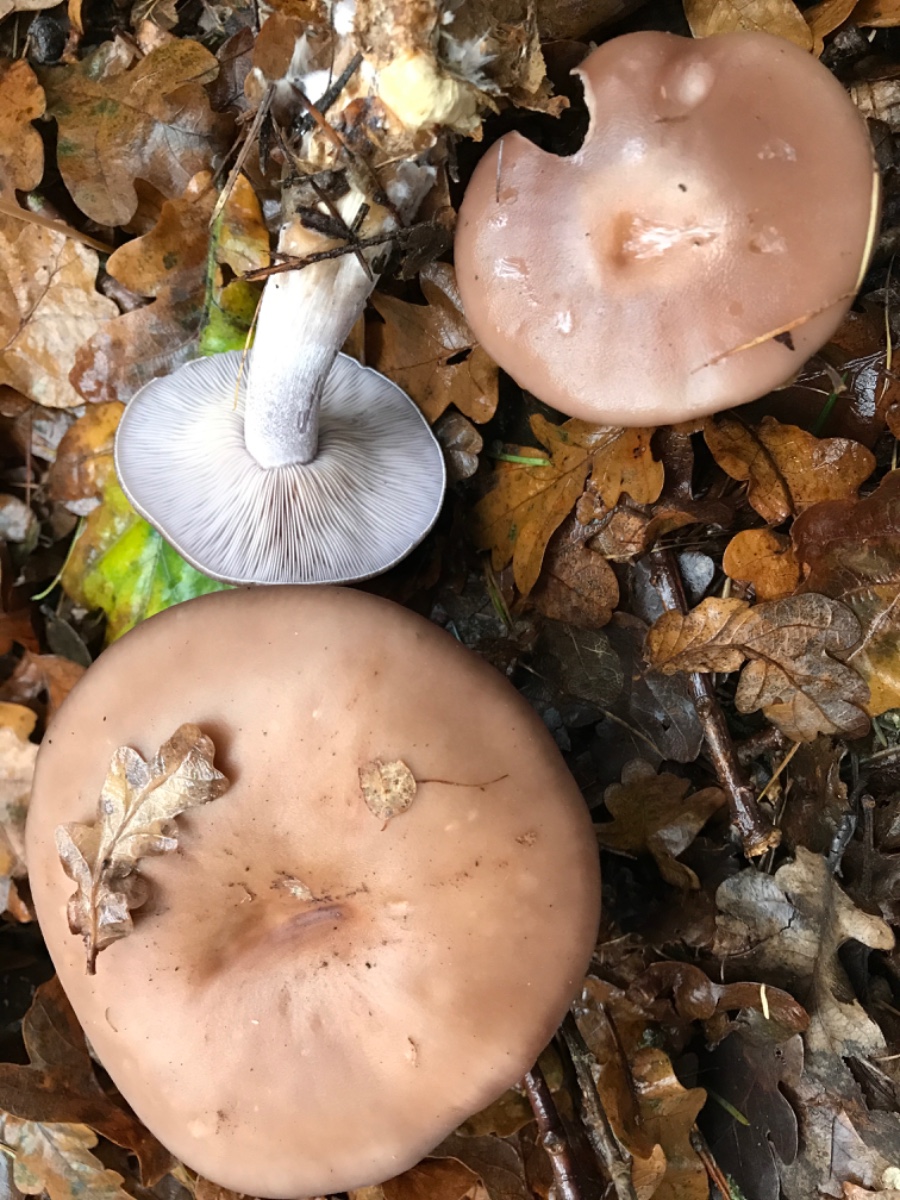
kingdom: Fungi
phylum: Basidiomycota
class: Agaricomycetes
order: Agaricales
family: Tricholomataceae
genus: Lepista
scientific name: Lepista nuda
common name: violet hekseringshat
